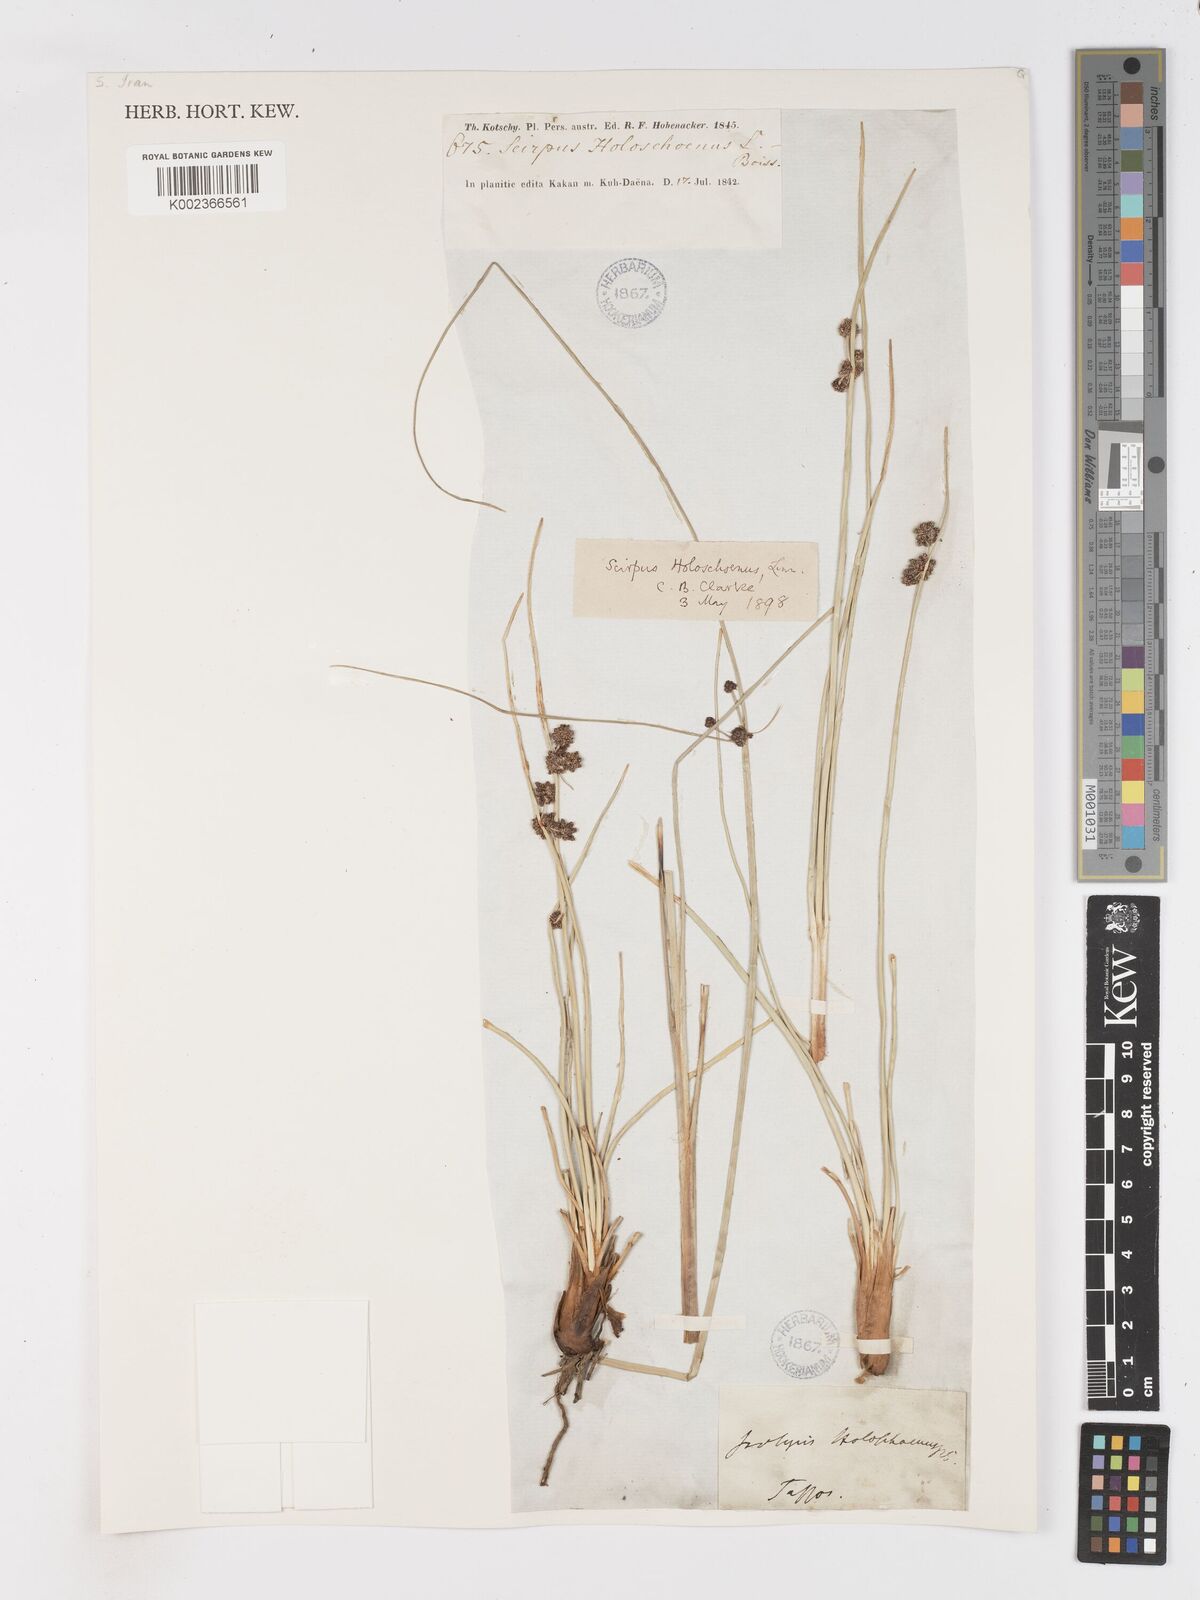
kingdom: Plantae
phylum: Tracheophyta
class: Liliopsida
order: Poales
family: Cyperaceae
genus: Scirpoides
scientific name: Scirpoides holoschoenus
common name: Round-headed club-rush
